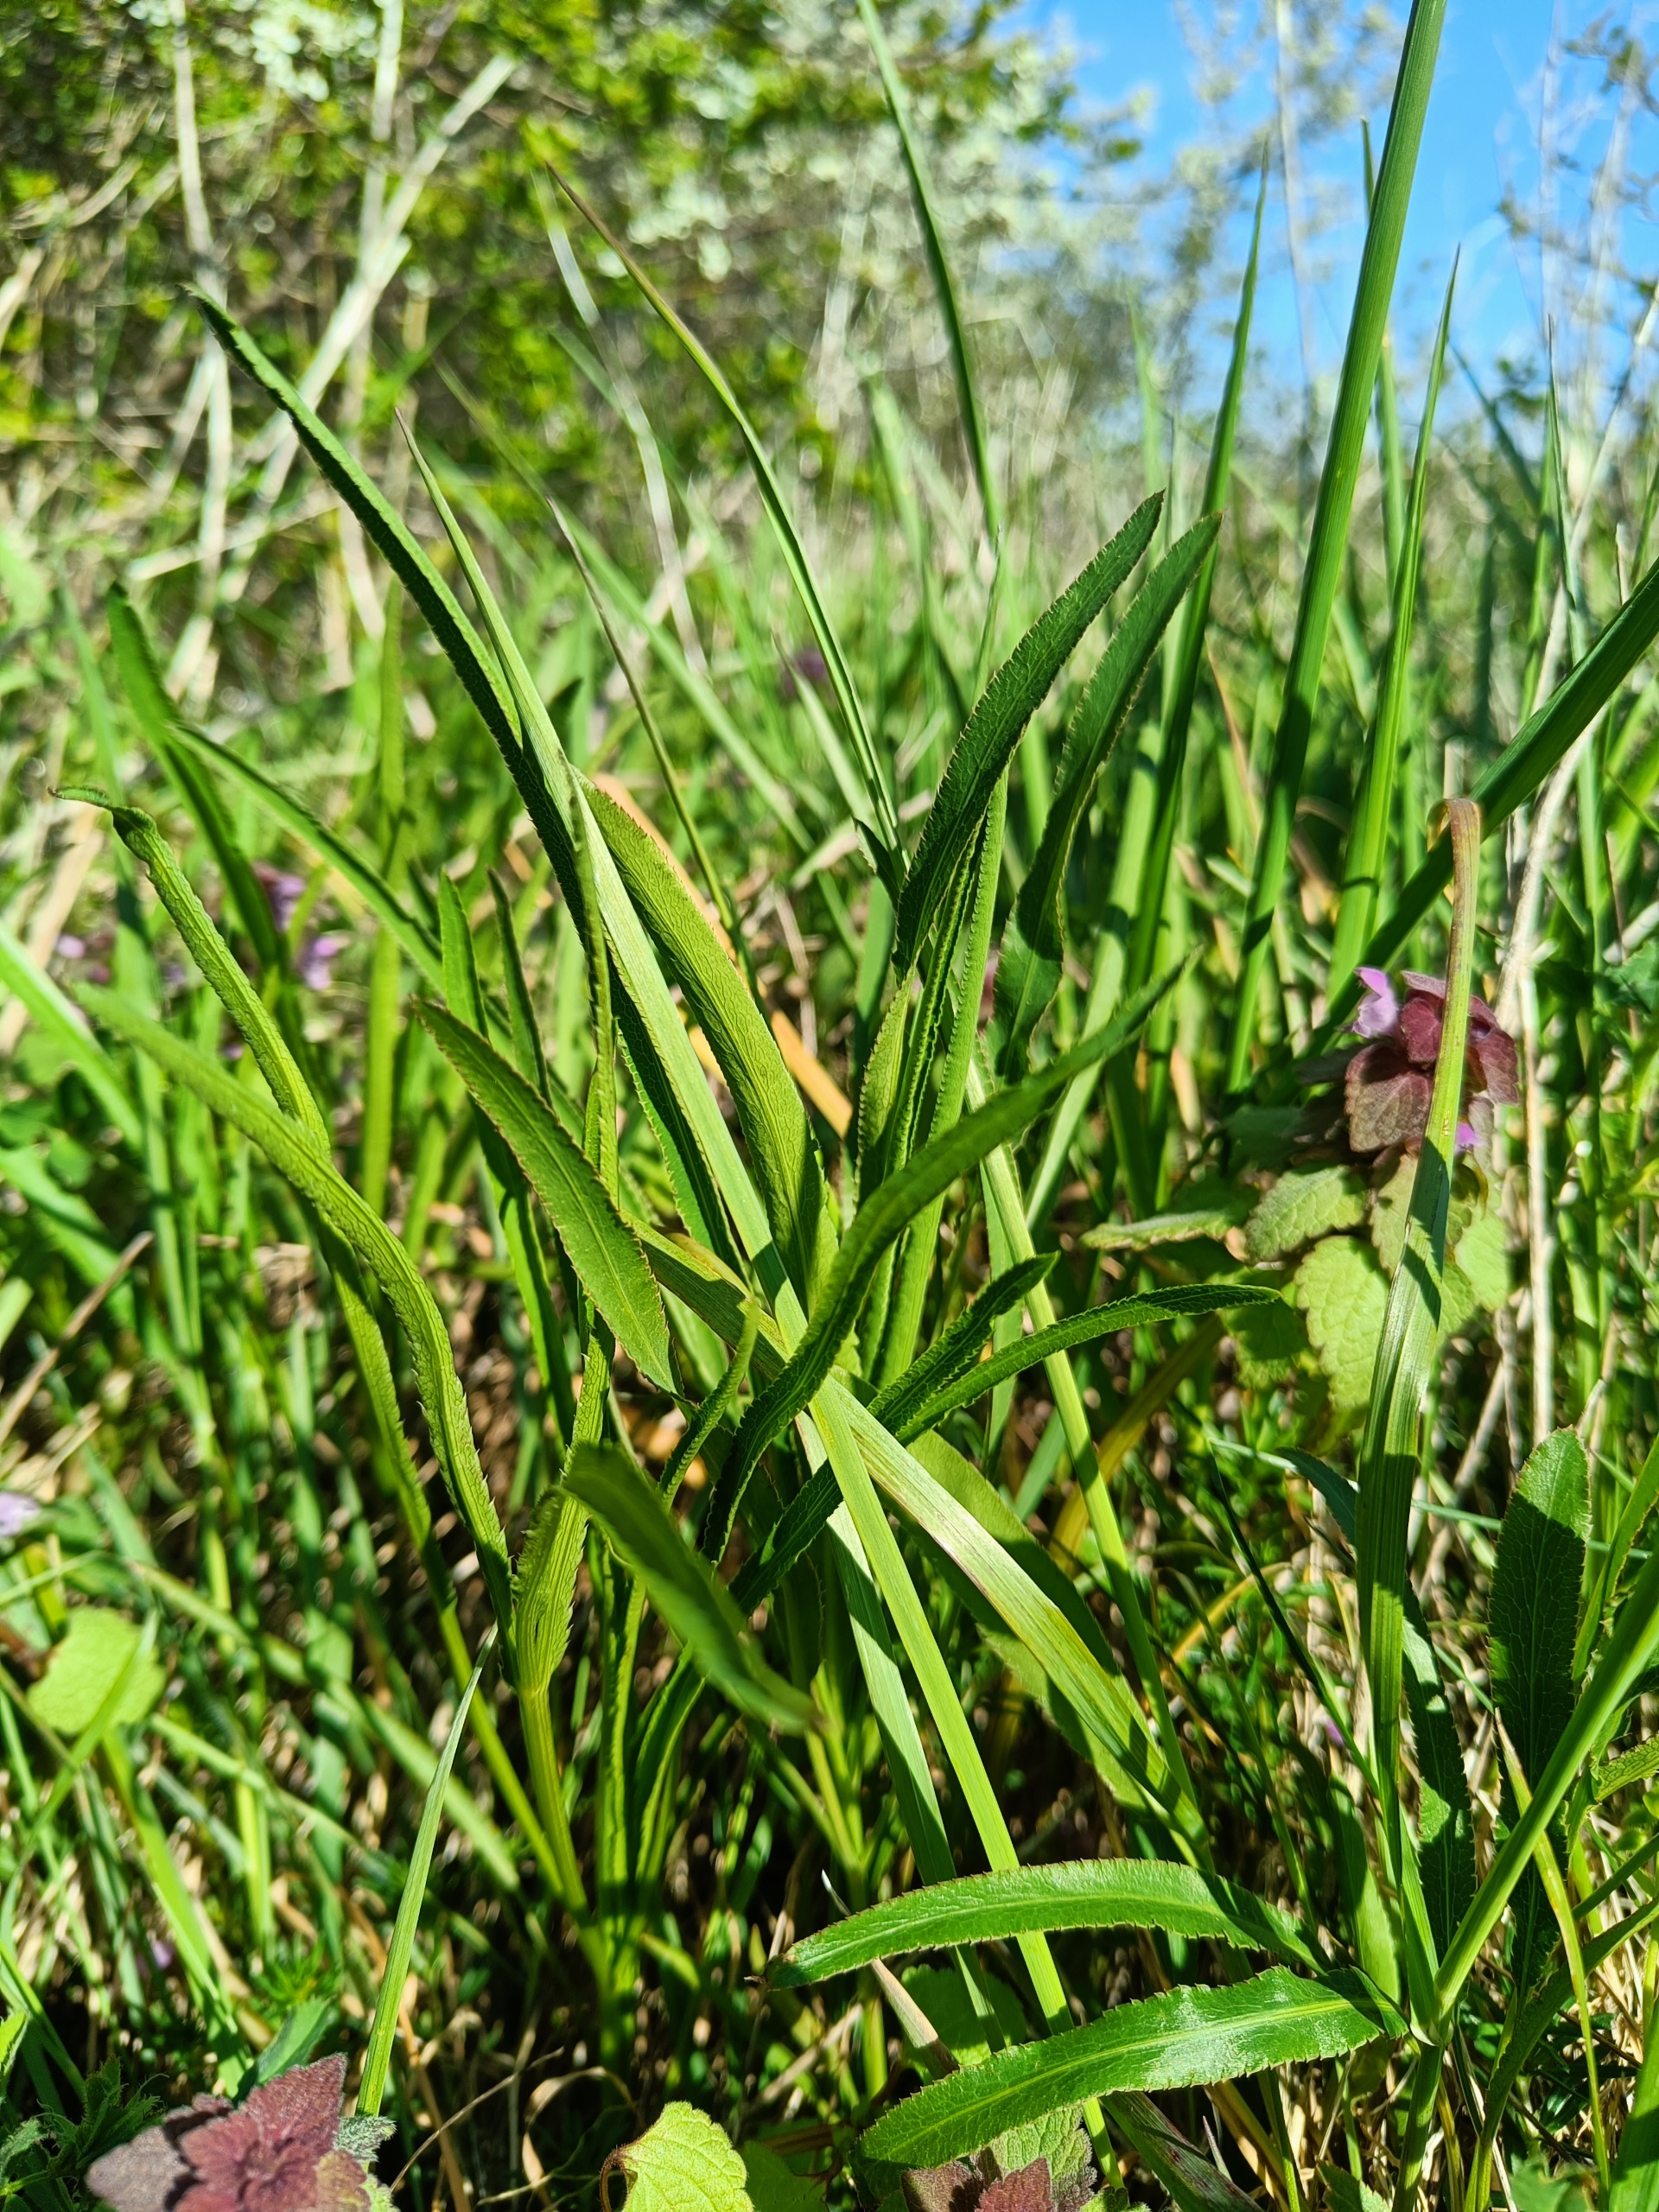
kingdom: Plantae
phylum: Tracheophyta
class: Magnoliopsida
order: Apiales
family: Apiaceae
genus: Falcaria
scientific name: Falcaria vulgaris
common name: Seglblad
